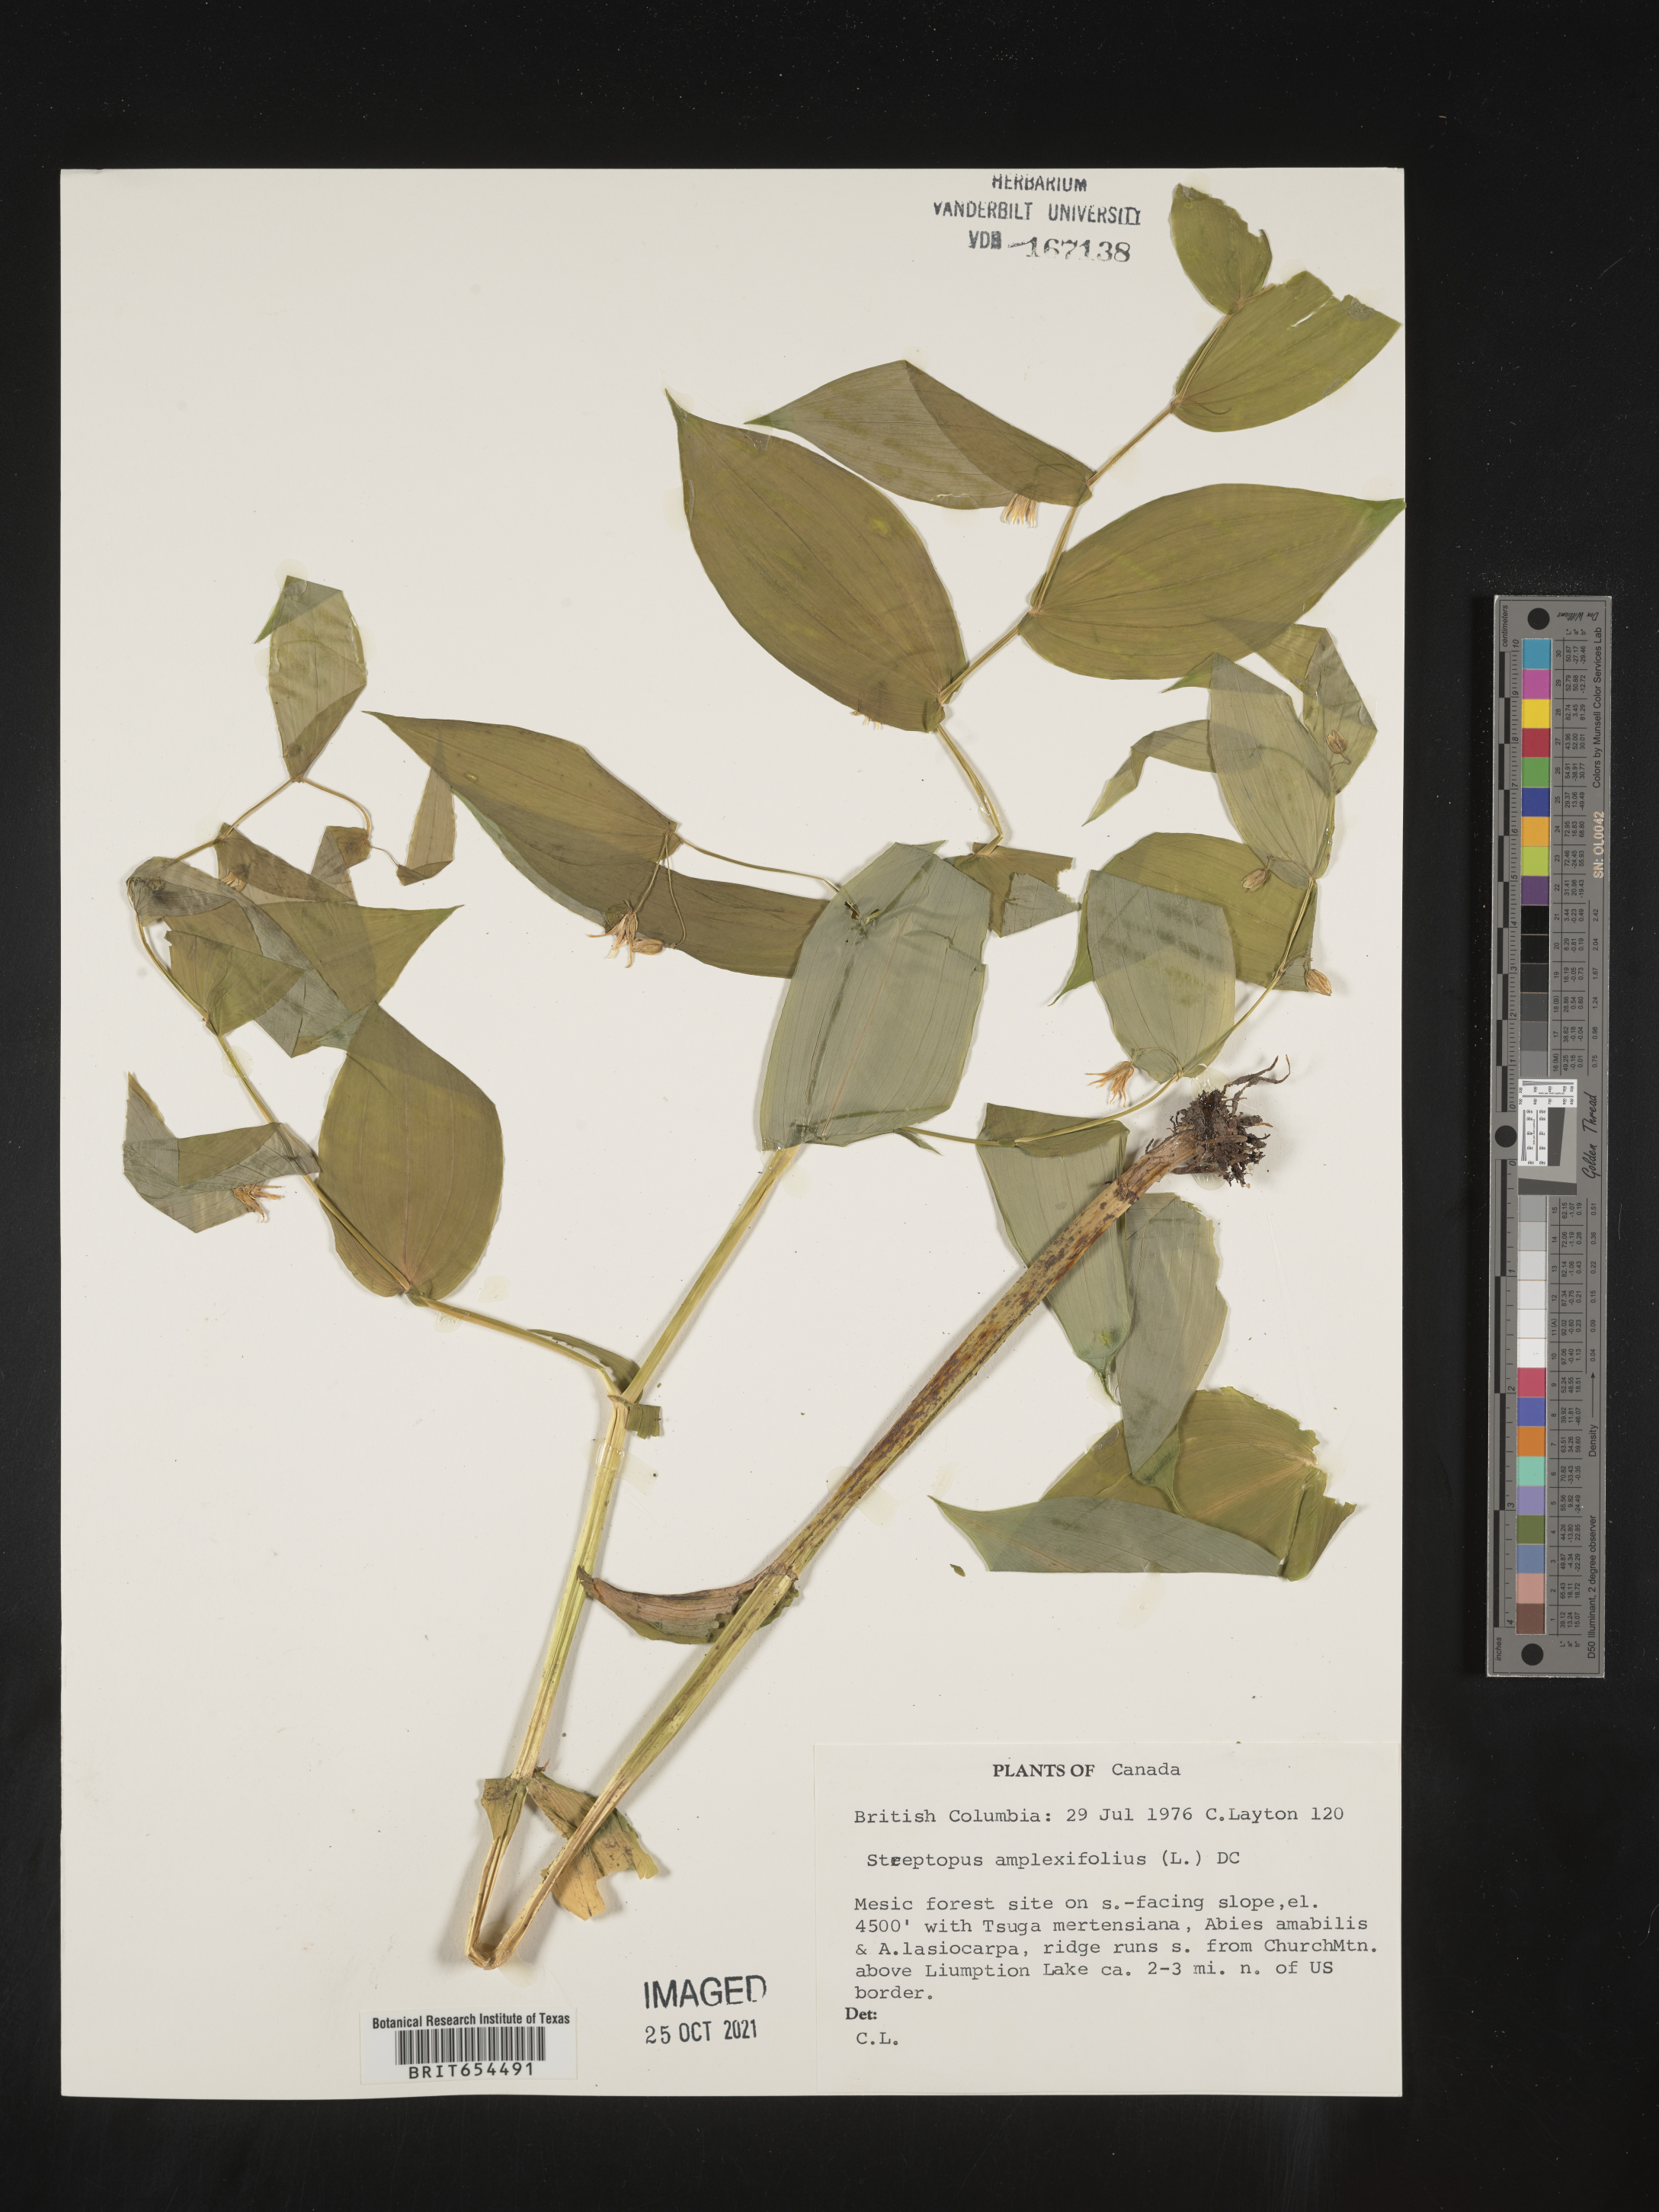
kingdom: Plantae
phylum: Tracheophyta
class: Liliopsida
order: Liliales
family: Liliaceae
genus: Streptopus
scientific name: Streptopus
